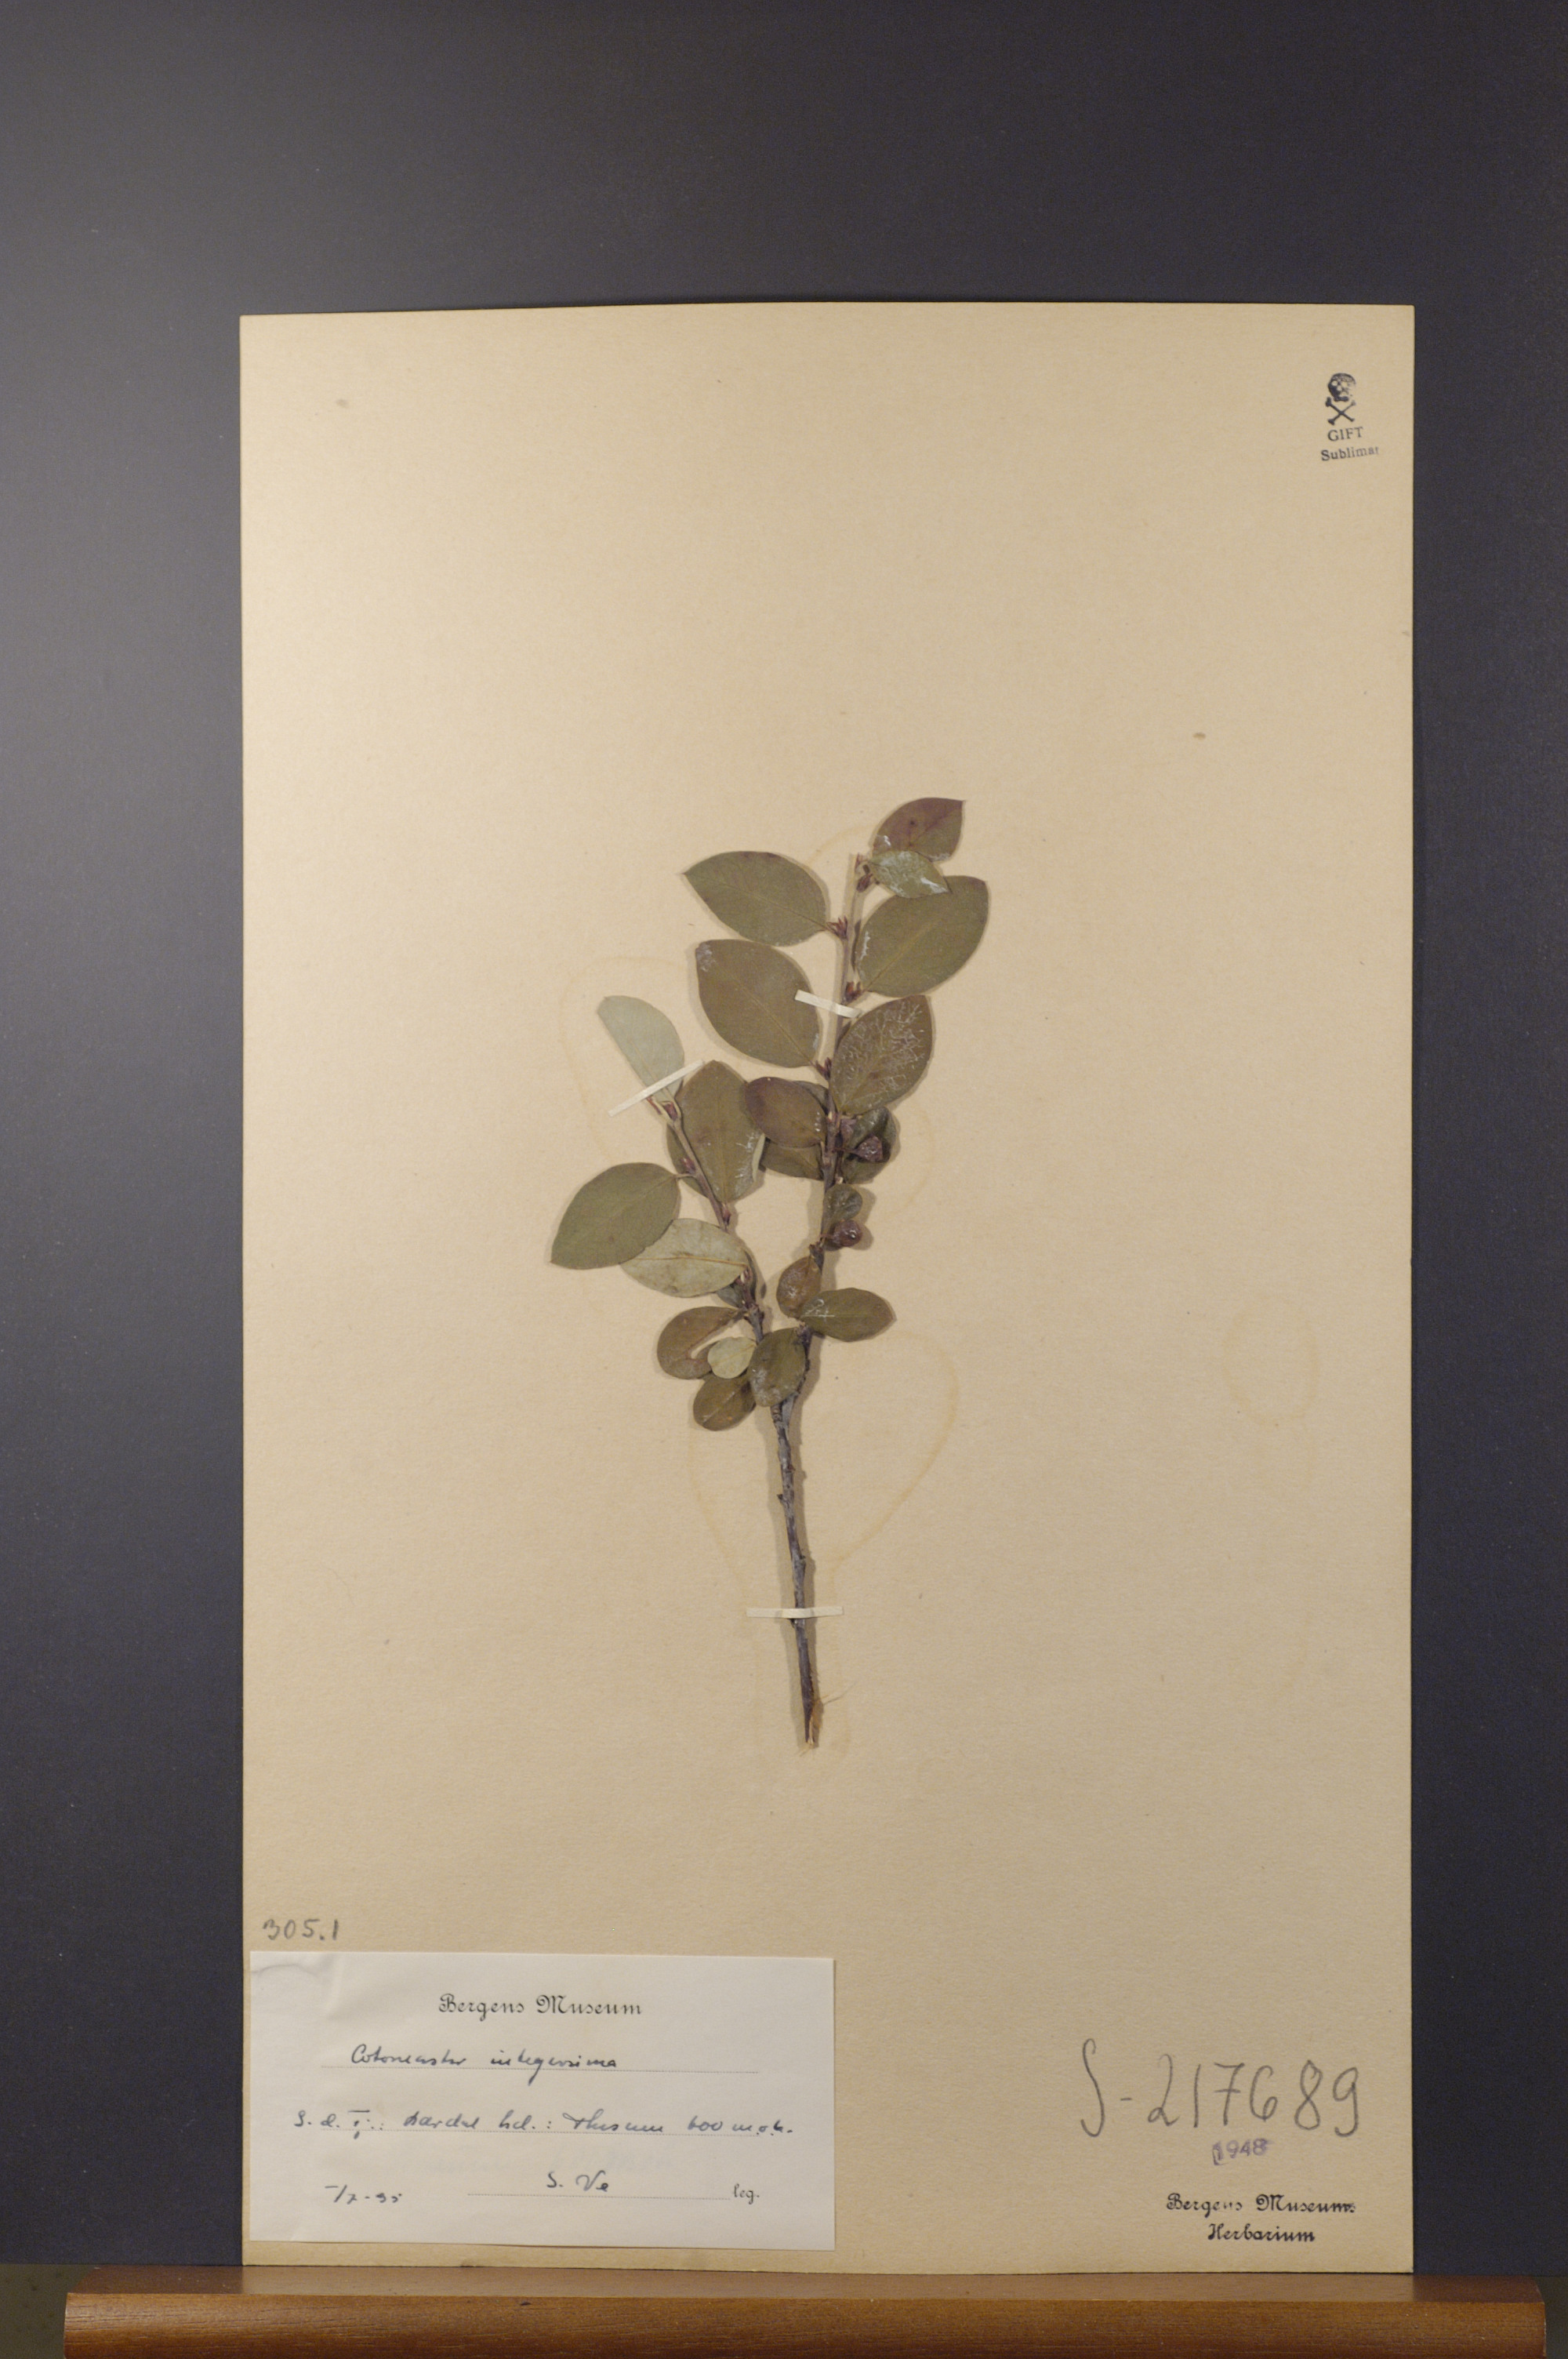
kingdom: Plantae
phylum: Tracheophyta
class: Magnoliopsida
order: Rosales
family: Rosaceae
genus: Cotoneaster
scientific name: Cotoneaster integerrimus
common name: Wild cotoneaster
